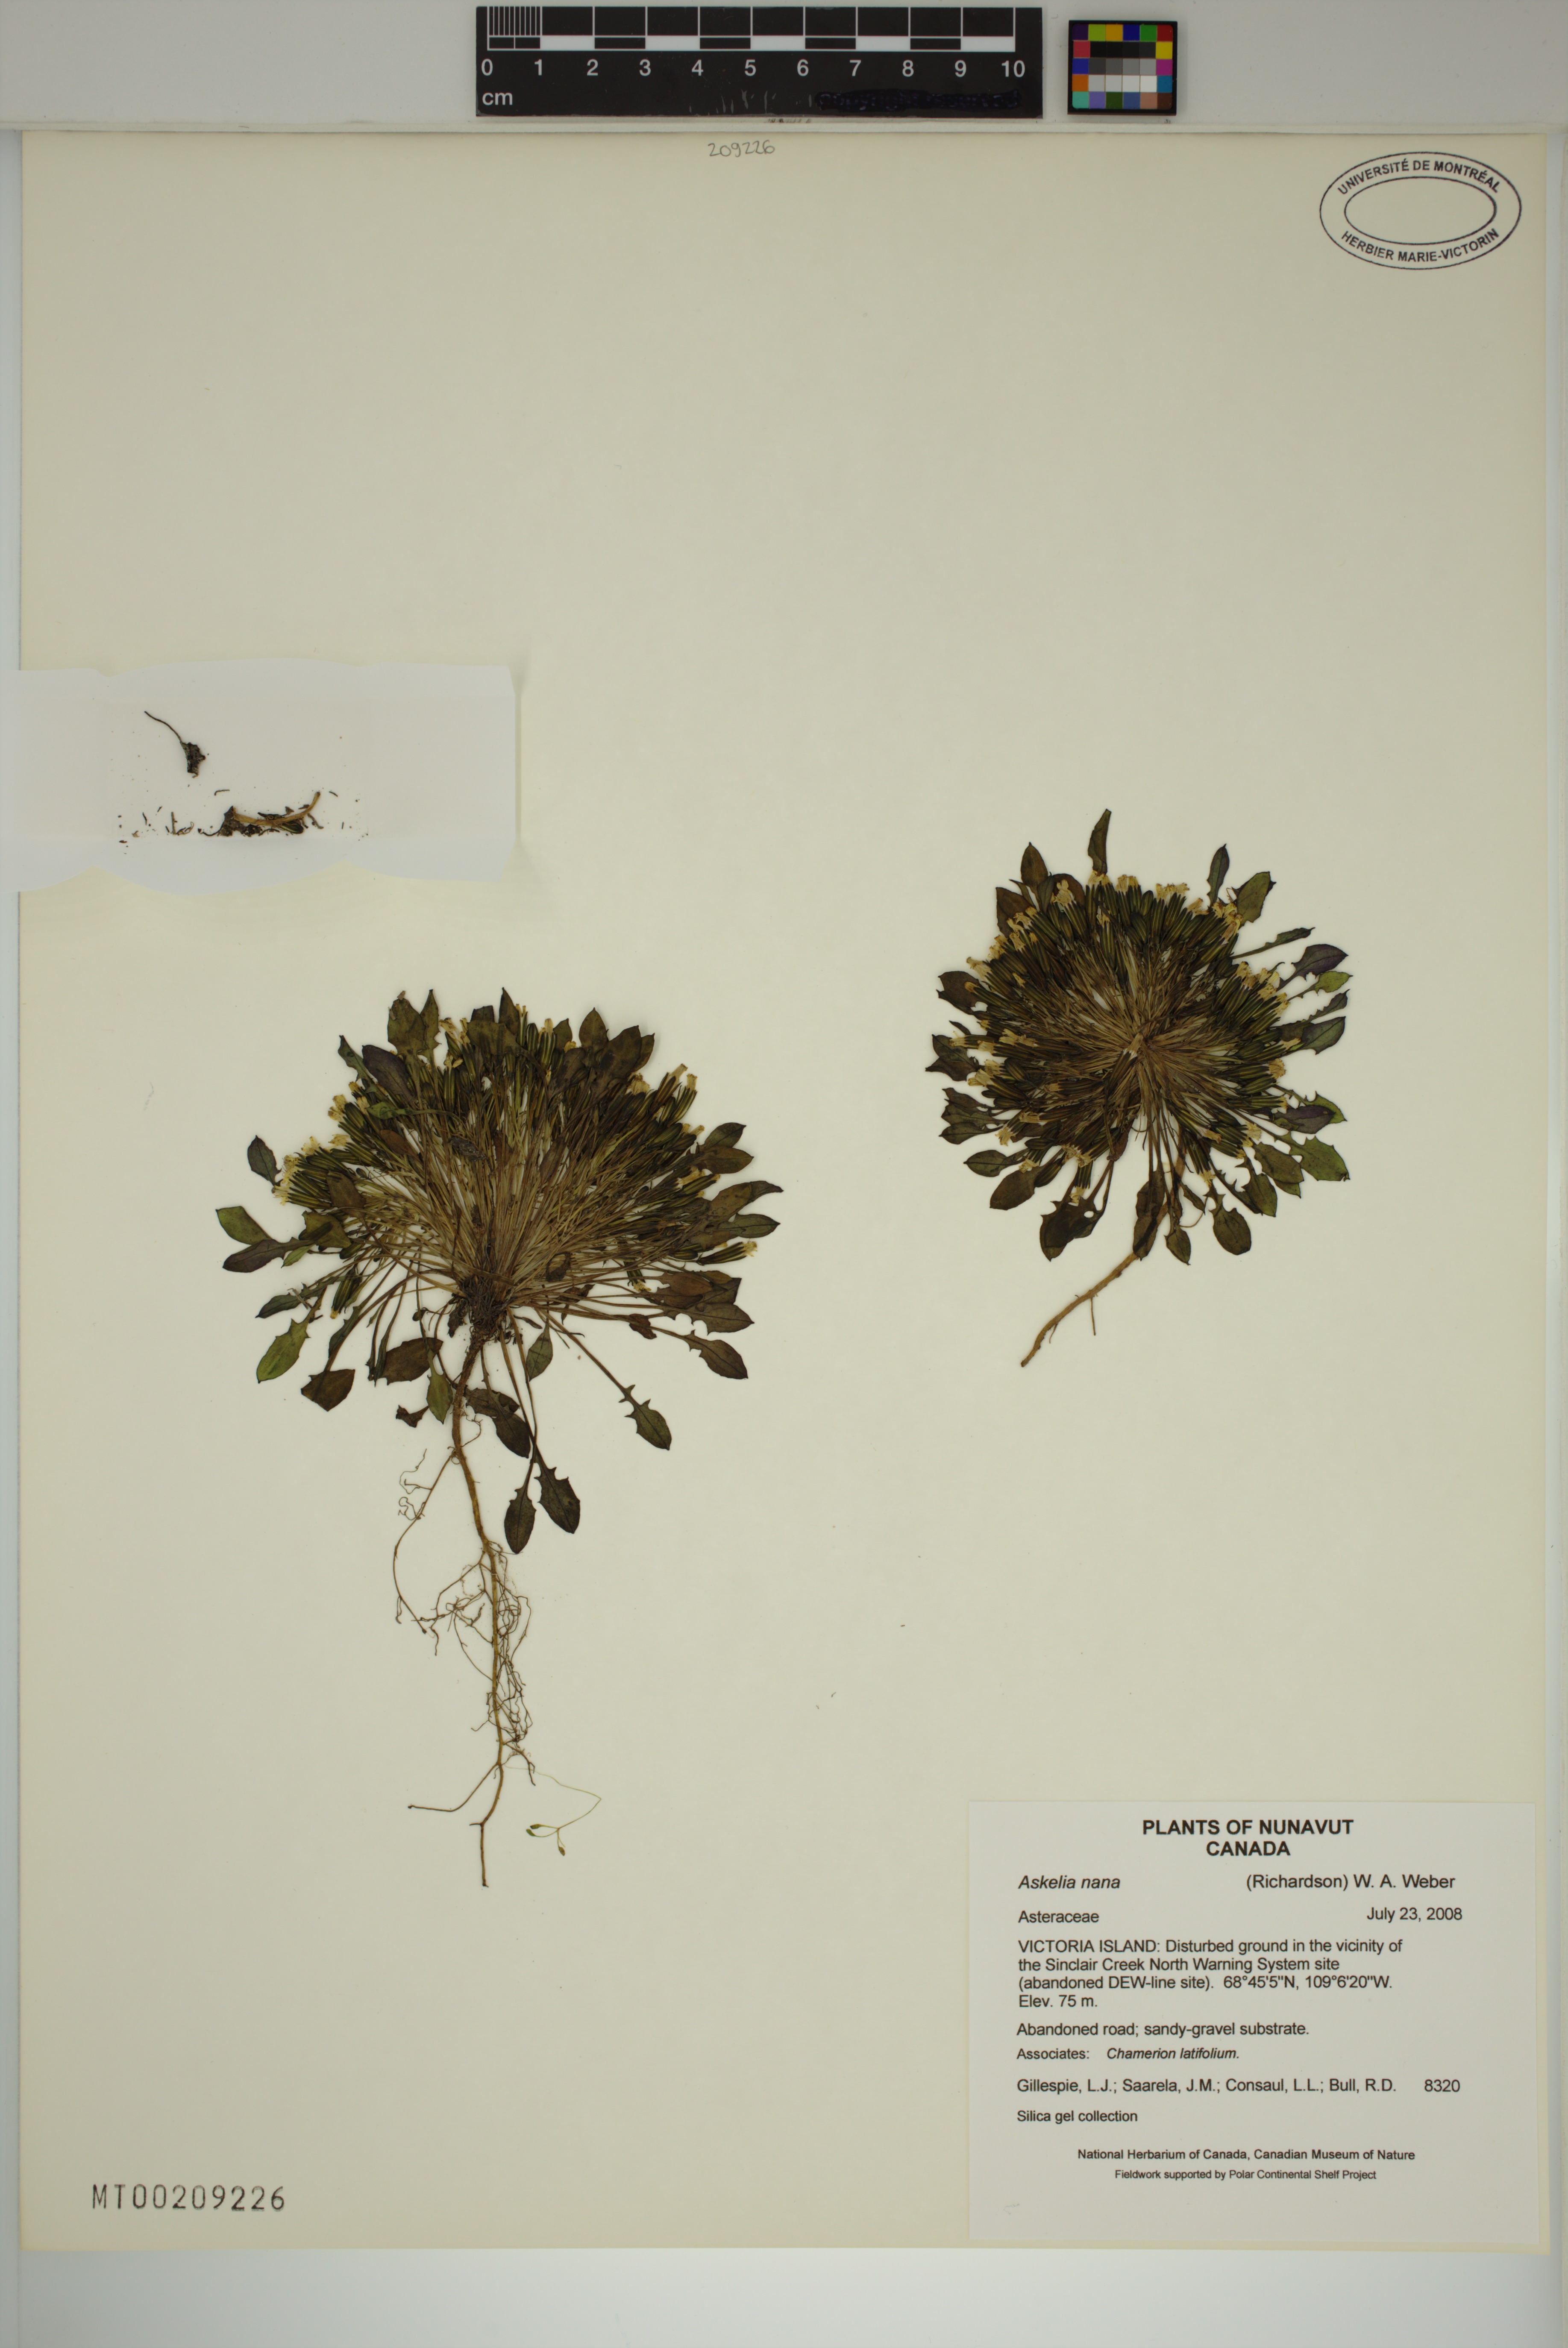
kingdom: Plantae
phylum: Tracheophyta
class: Magnoliopsida
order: Asterales
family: Asteraceae
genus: Askellia
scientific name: Askellia pygmaea
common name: Dwarf alpine hawksbeard
